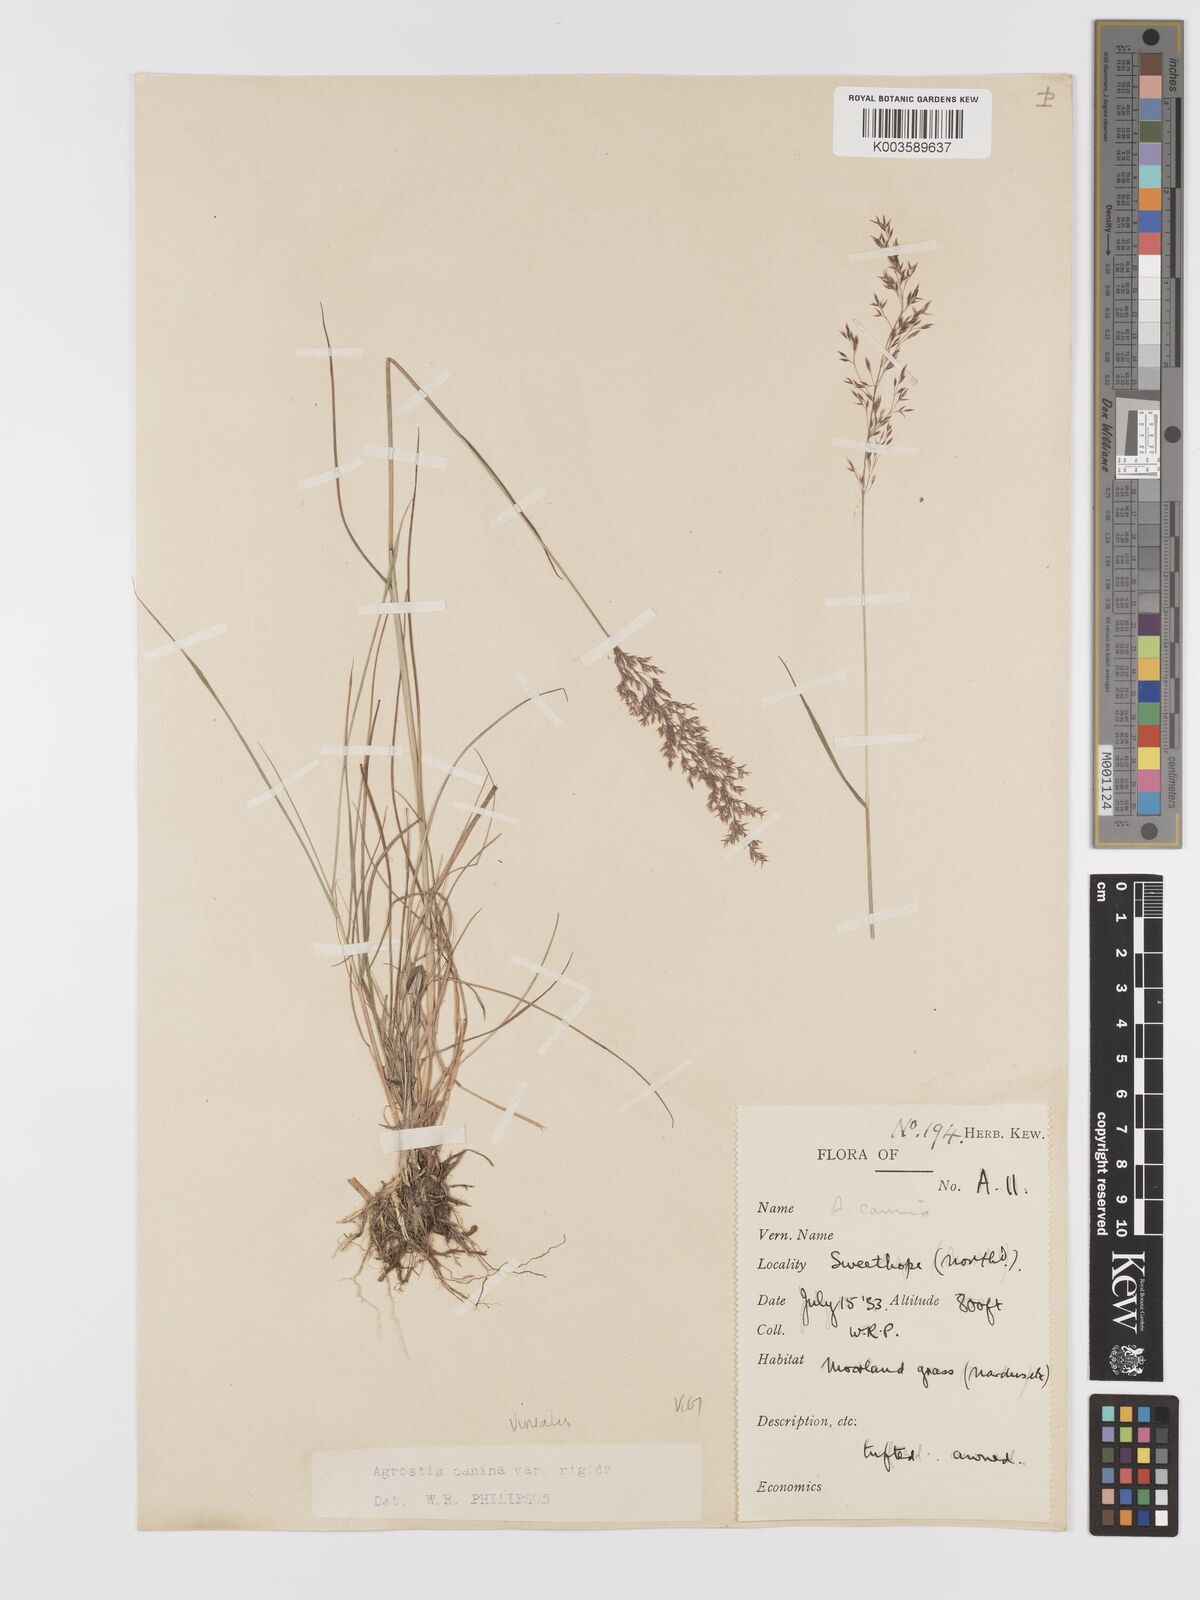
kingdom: Plantae
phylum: Tracheophyta
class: Liliopsida
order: Poales
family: Poaceae
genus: Agrostis
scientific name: Agrostis
